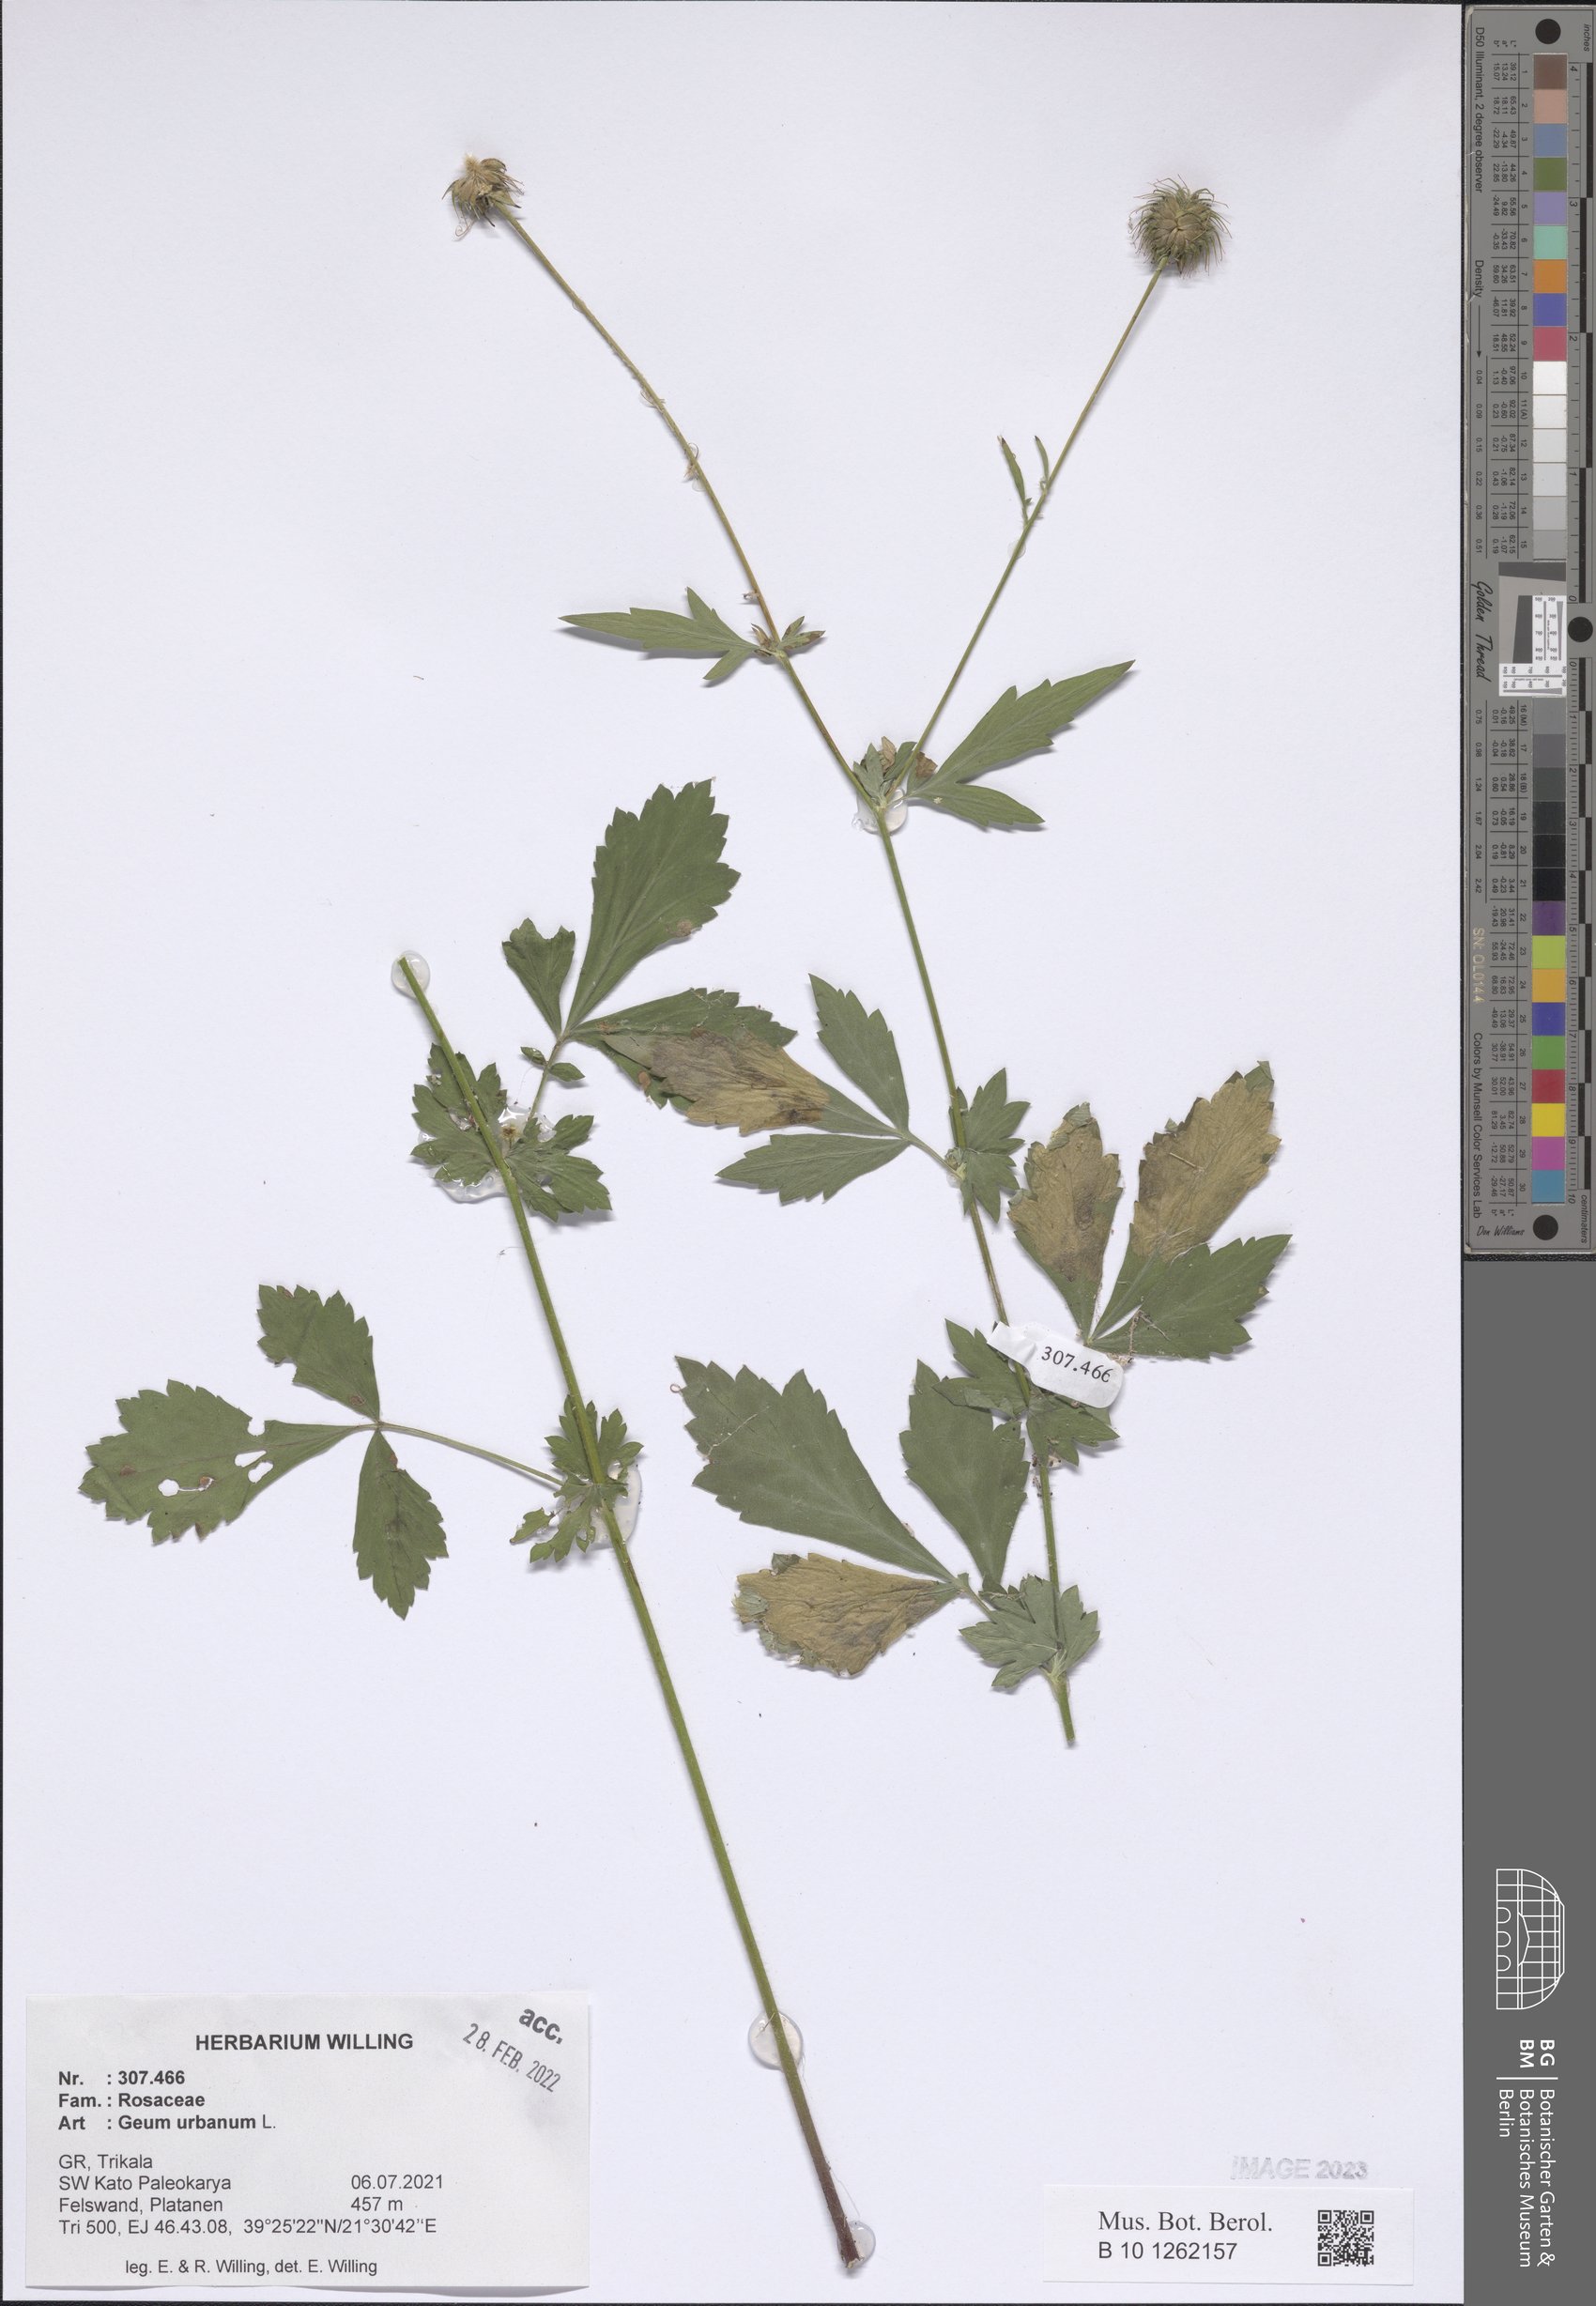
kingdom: Plantae
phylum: Tracheophyta
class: Magnoliopsida
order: Rosales
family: Rosaceae
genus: Geum
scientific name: Geum urbanum
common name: Wood avens
